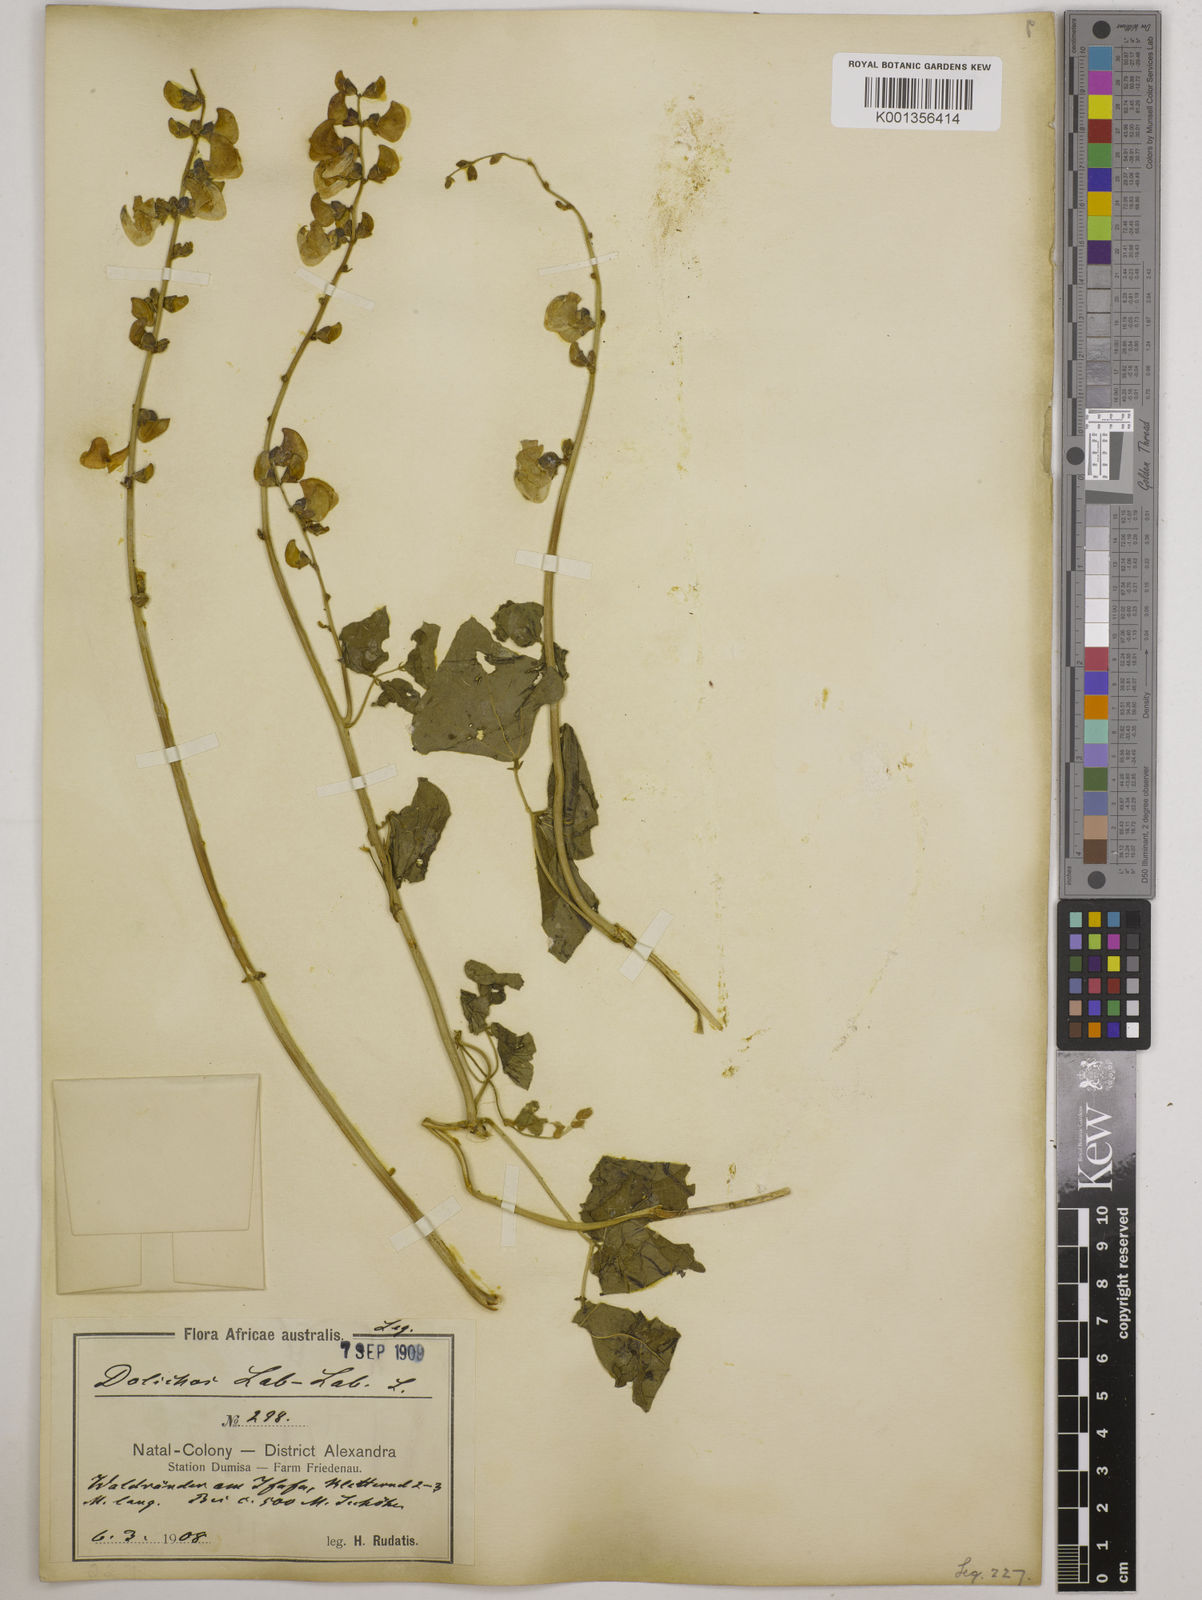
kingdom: Plantae
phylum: Tracheophyta
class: Magnoliopsida
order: Fabales
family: Fabaceae
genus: Lablab
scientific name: Lablab purpureus
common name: Lablab-bean
